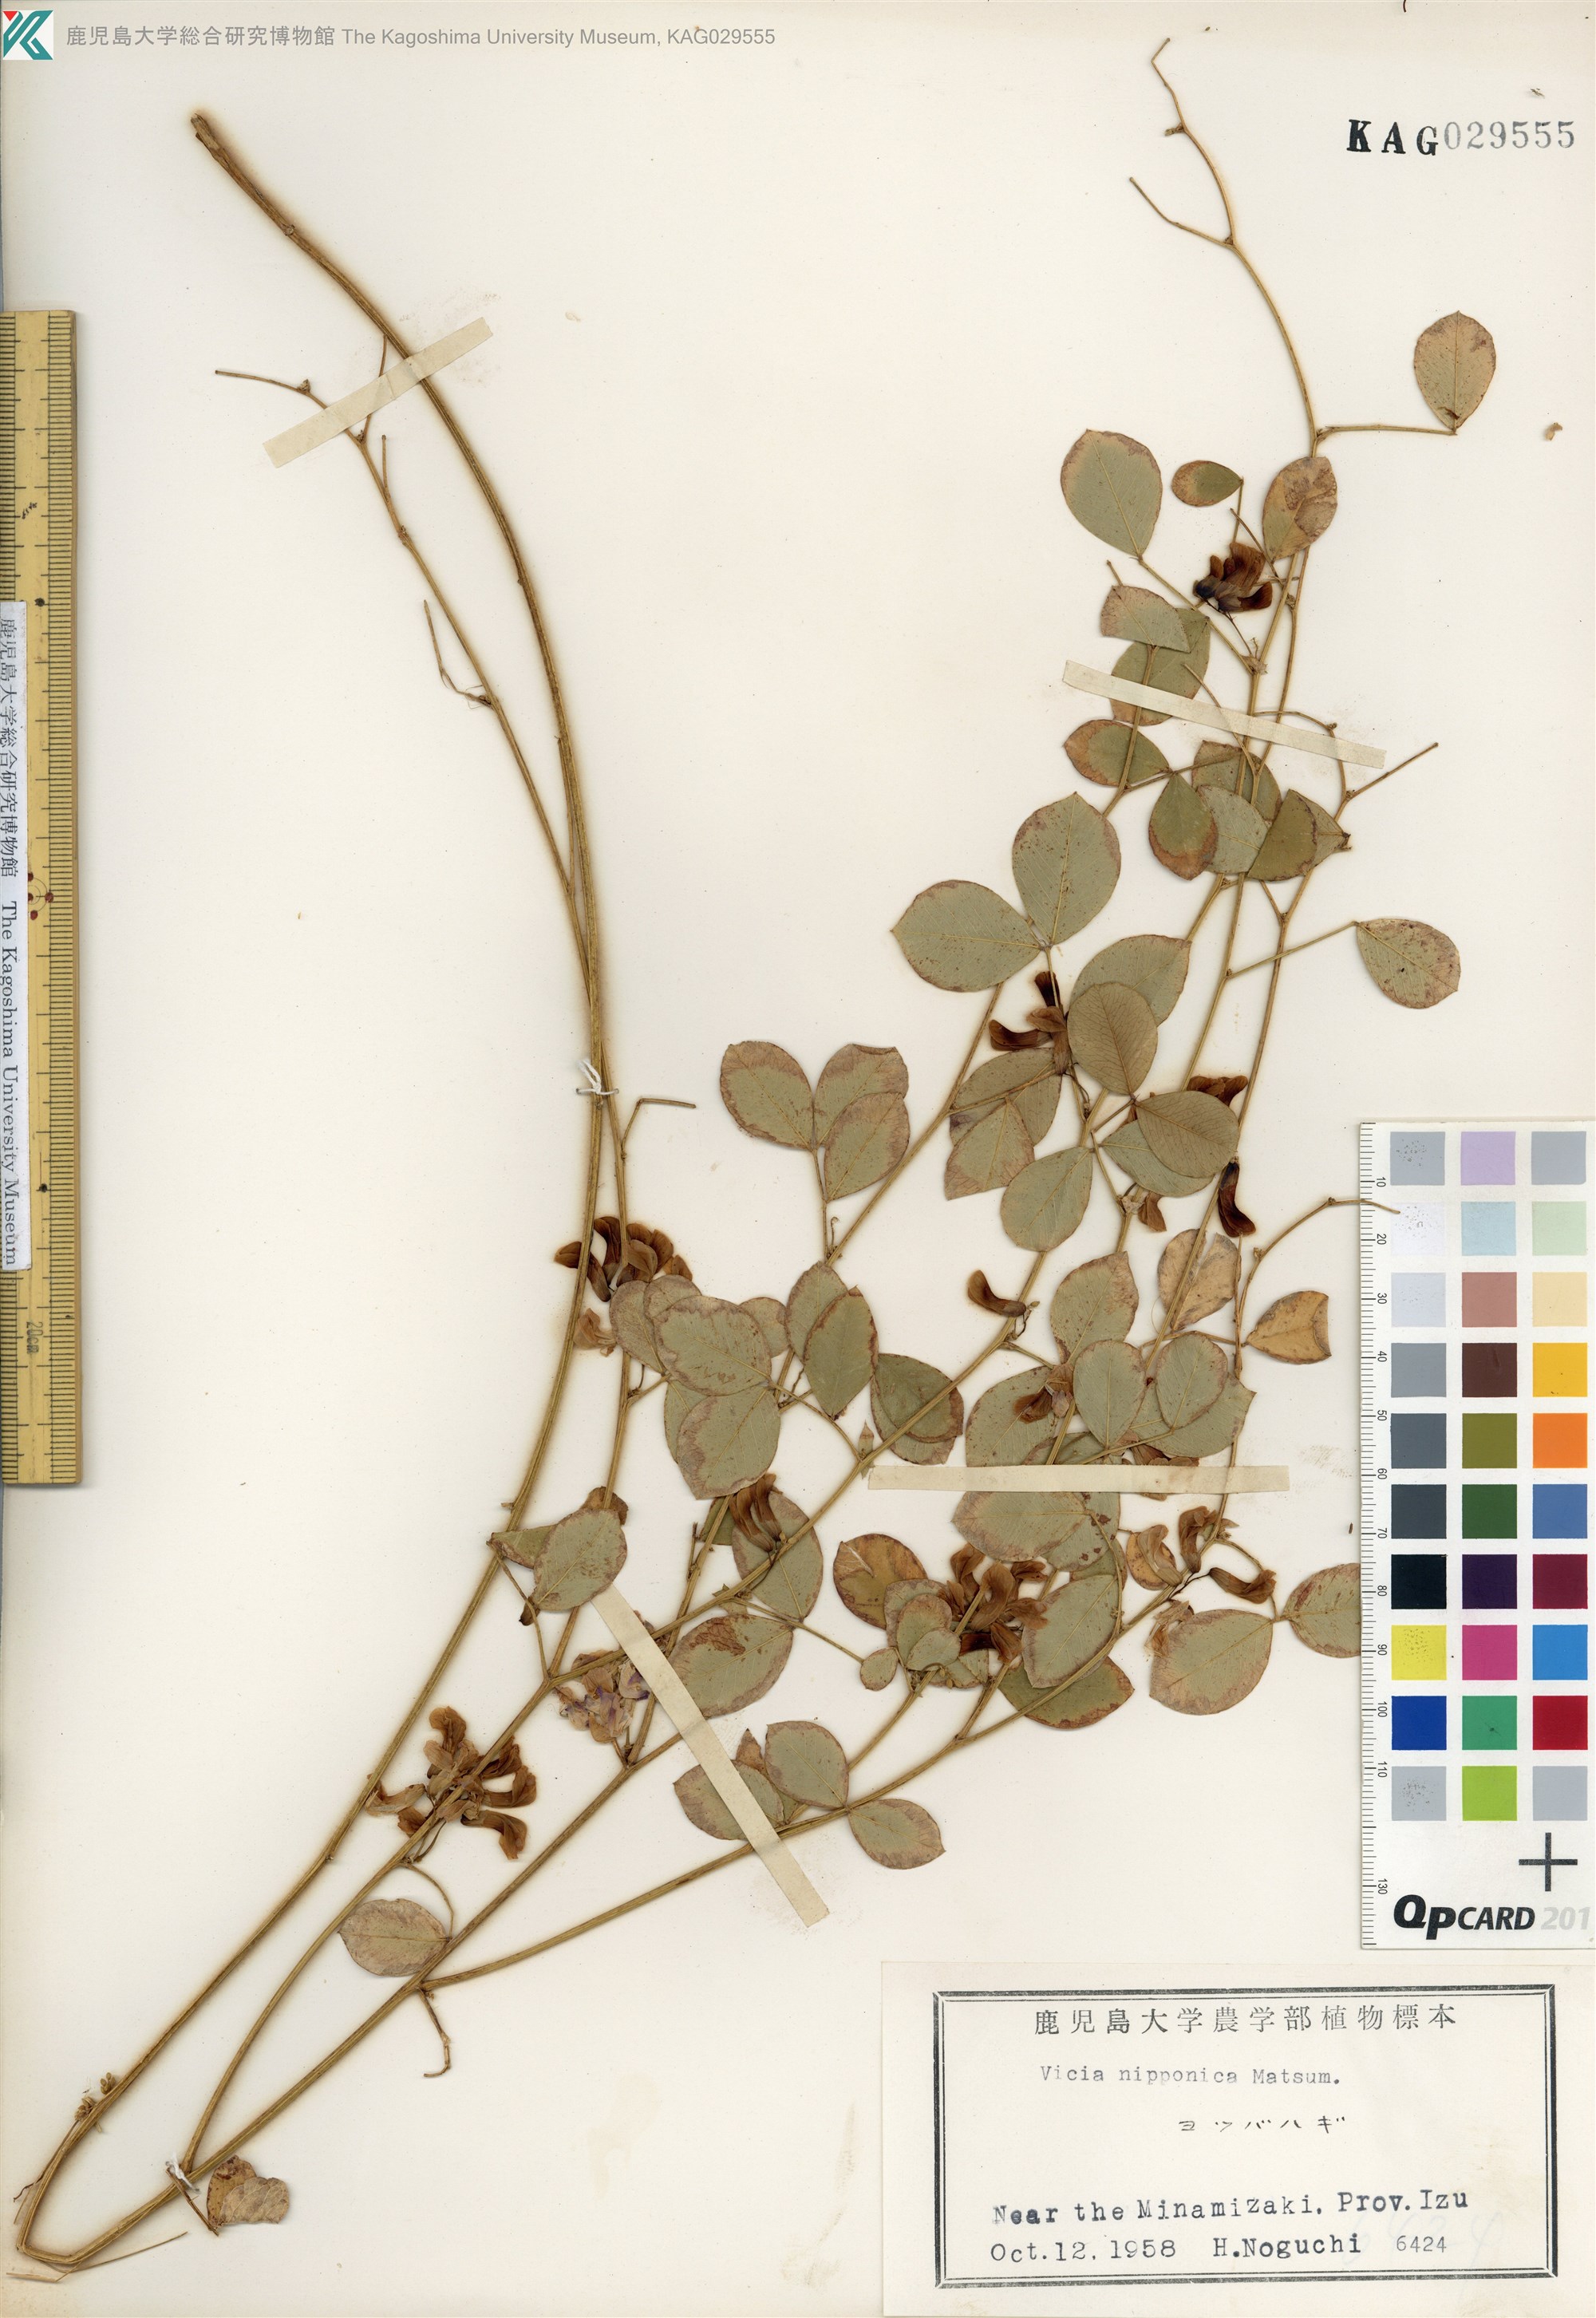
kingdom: Plantae
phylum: Tracheophyta
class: Magnoliopsida
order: Fabales
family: Fabaceae
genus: Vicia
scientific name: Vicia nipponica
